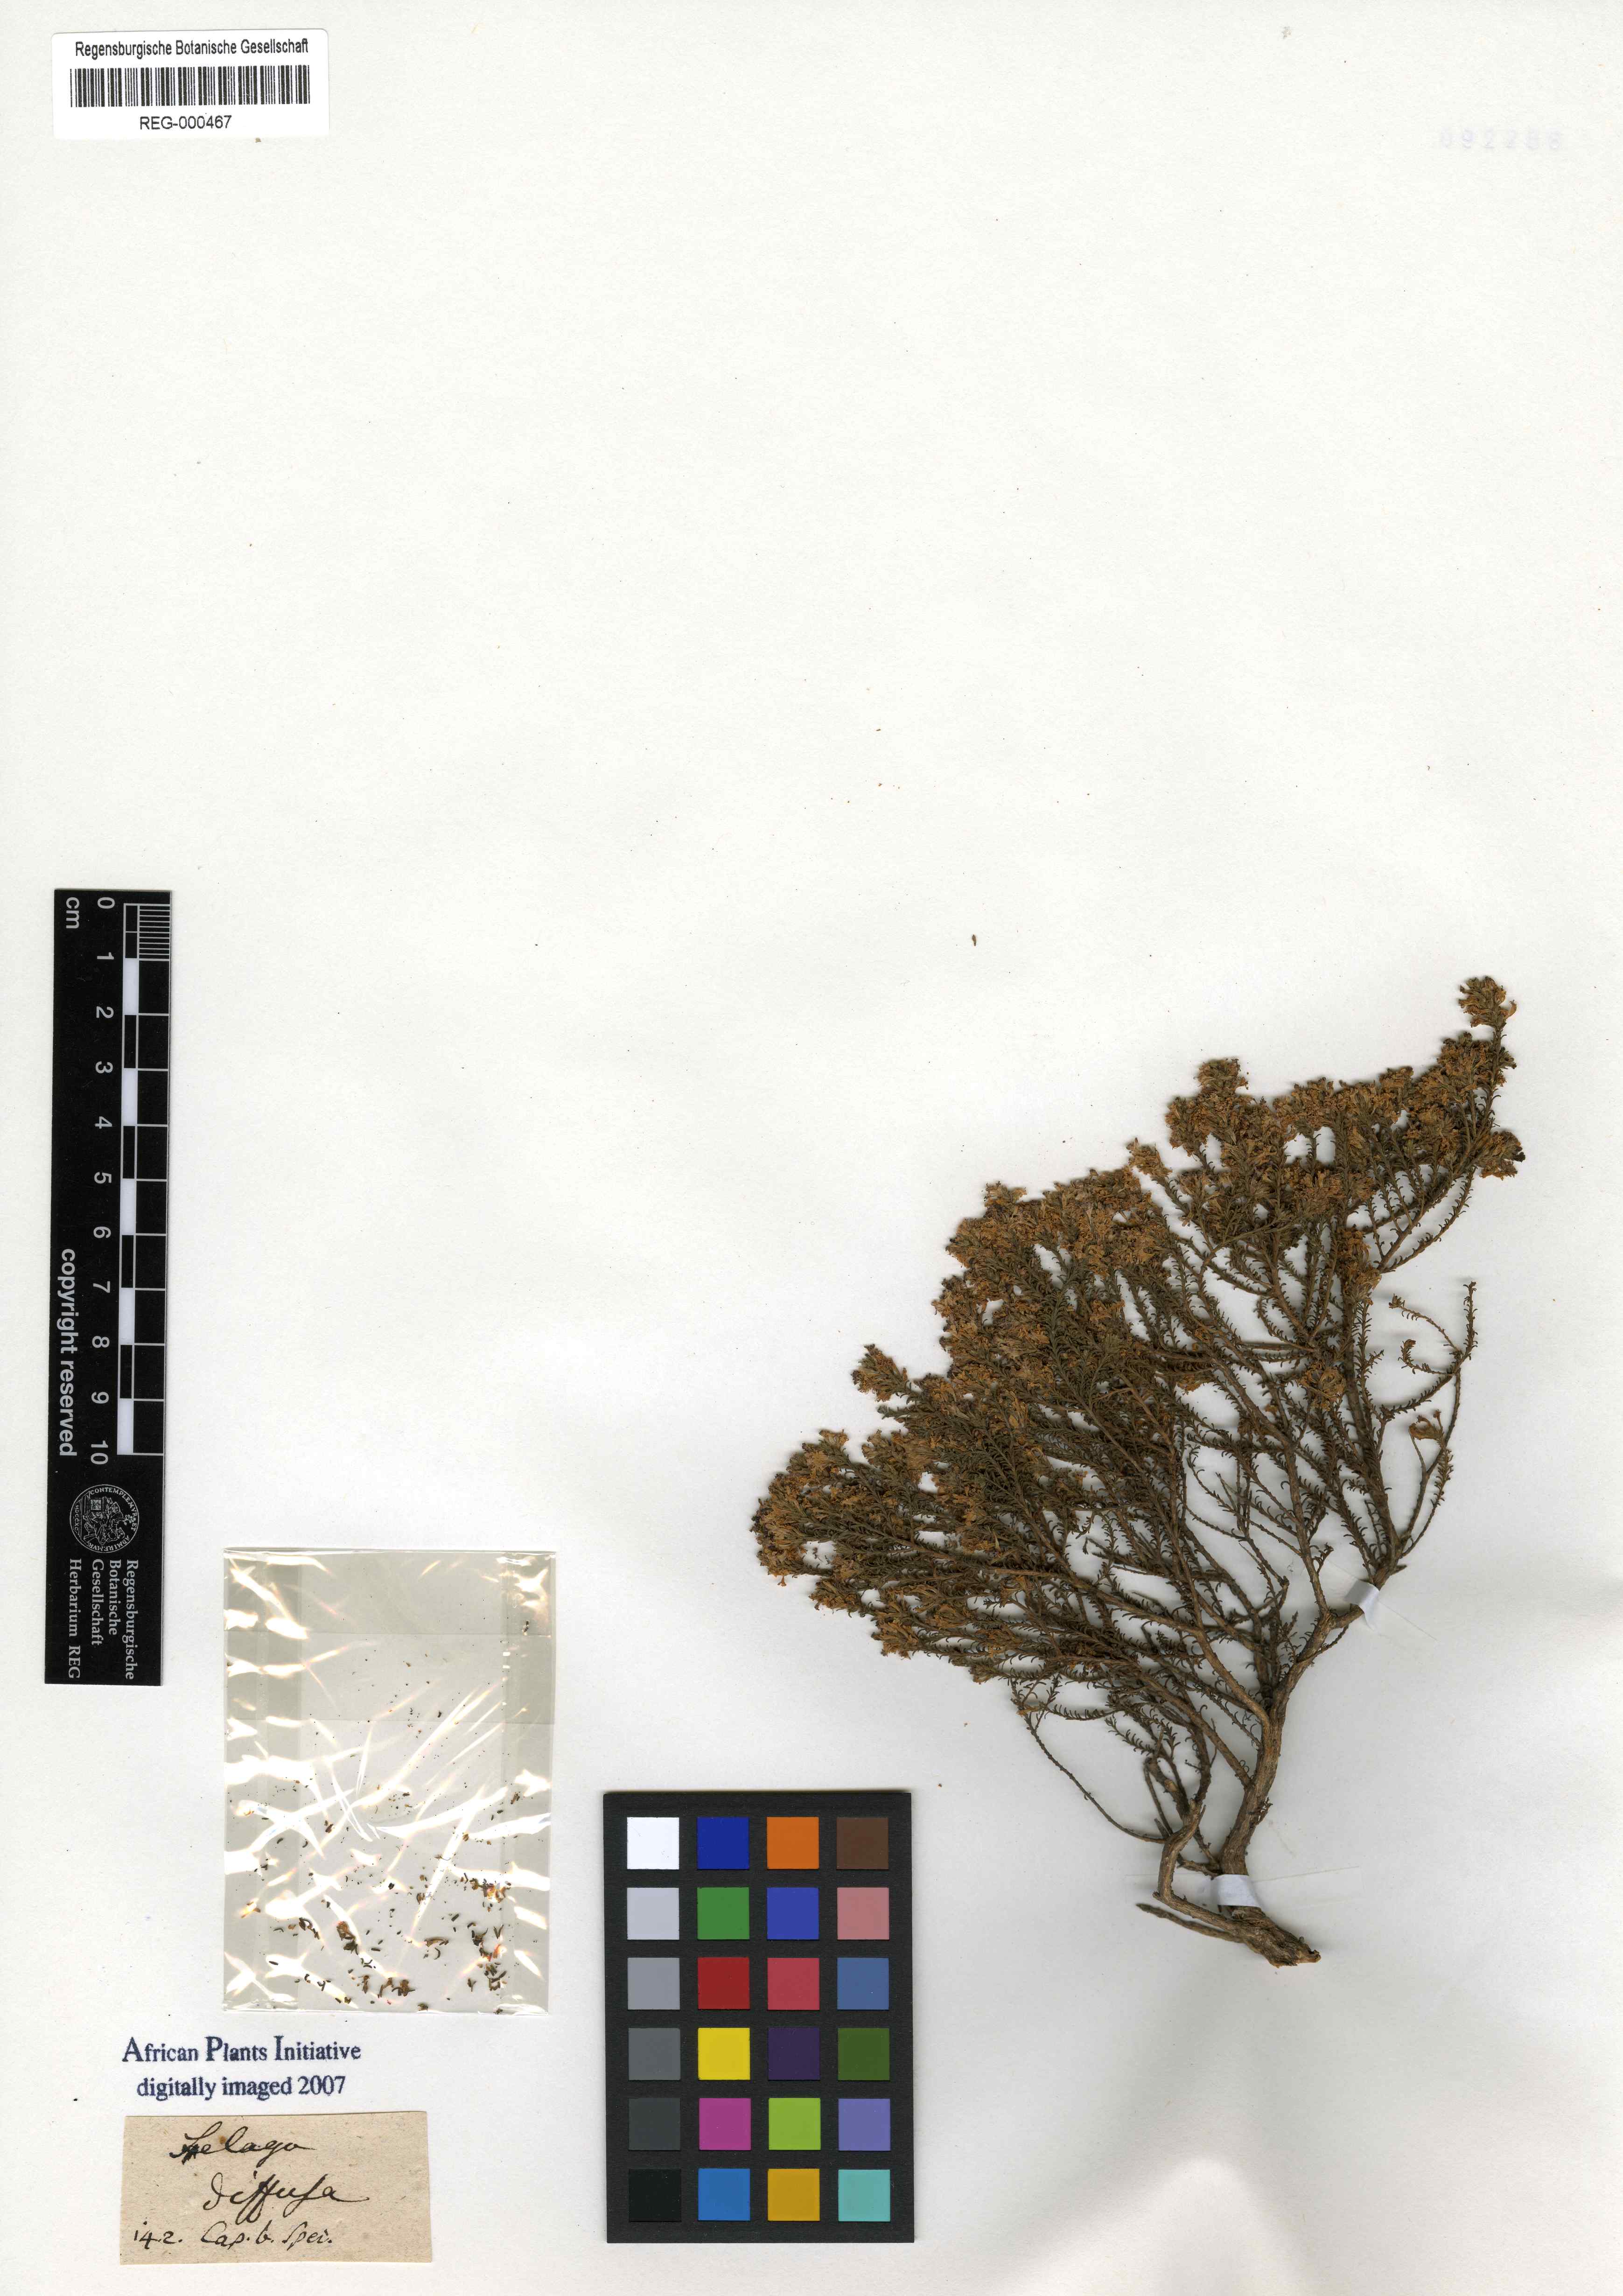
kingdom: Plantae
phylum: Tracheophyta
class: Magnoliopsida
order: Lamiales
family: Scrophulariaceae
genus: Selago
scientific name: Selago diffusa
